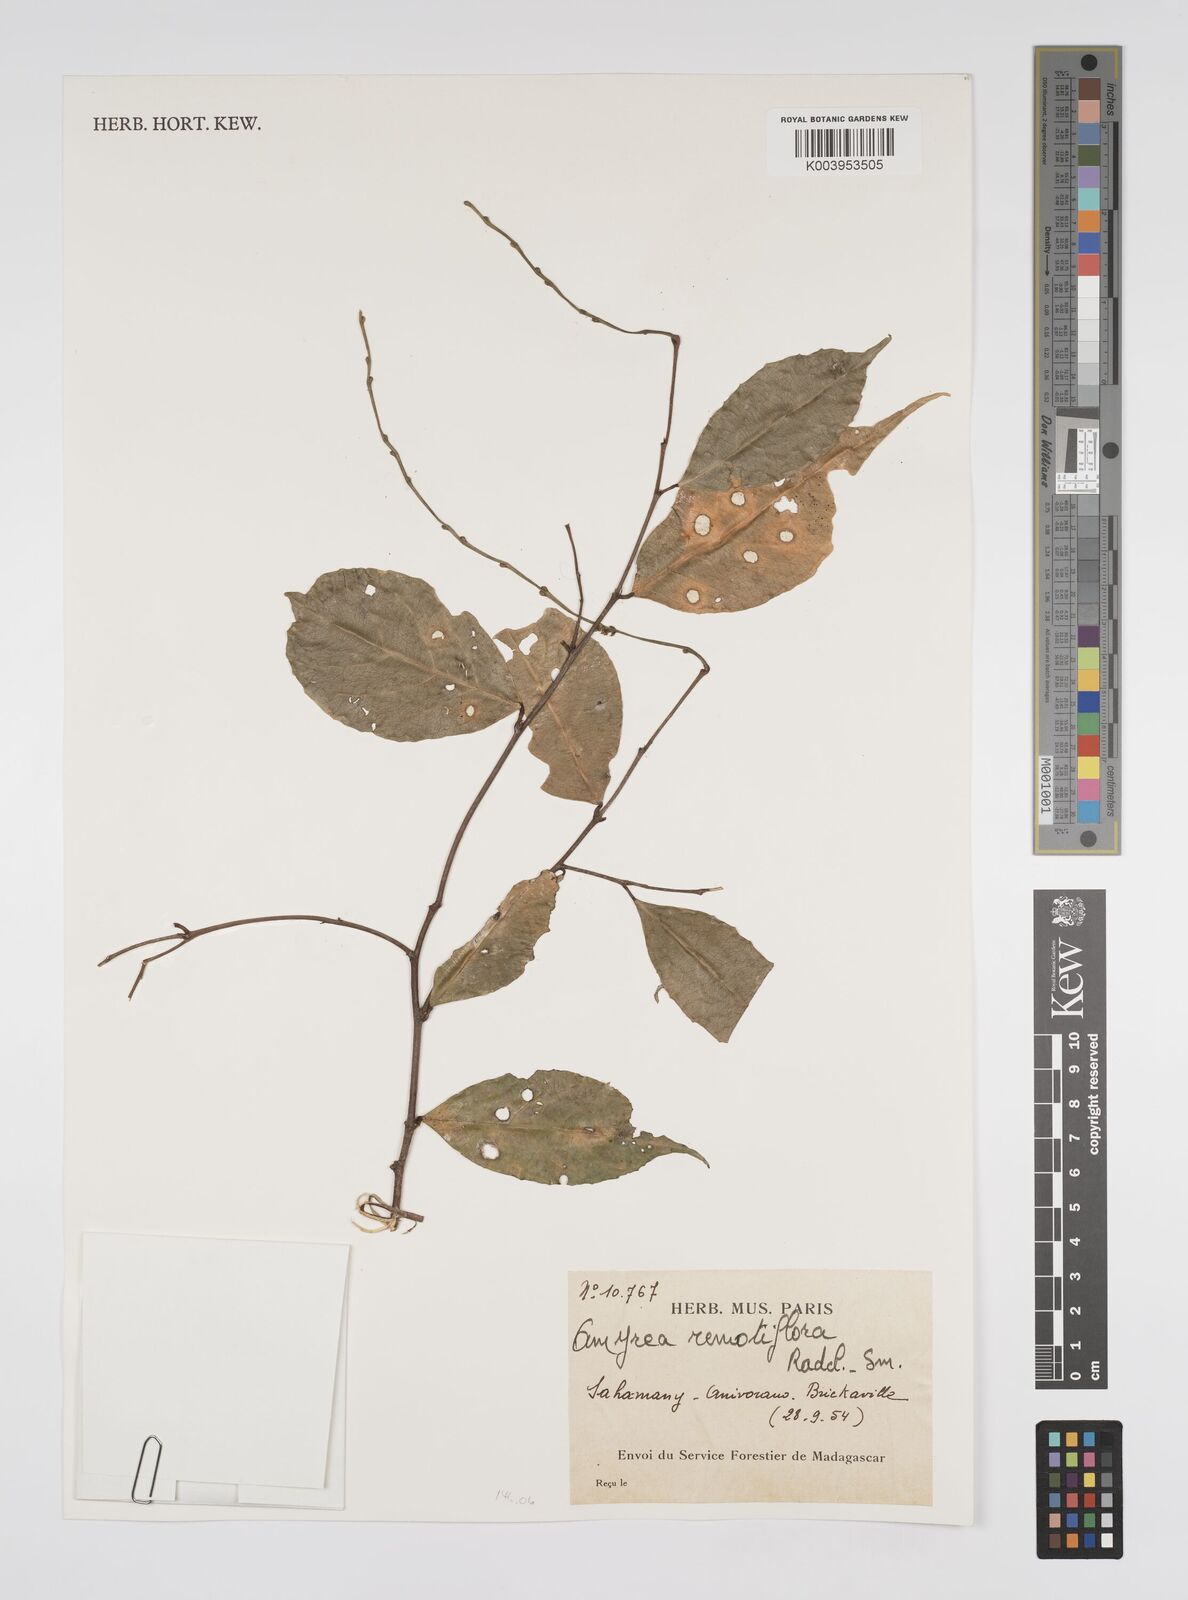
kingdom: Plantae
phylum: Tracheophyta
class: Magnoliopsida
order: Malpighiales
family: Euphorbiaceae
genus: Amyrea
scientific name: Amyrea remotiflora
